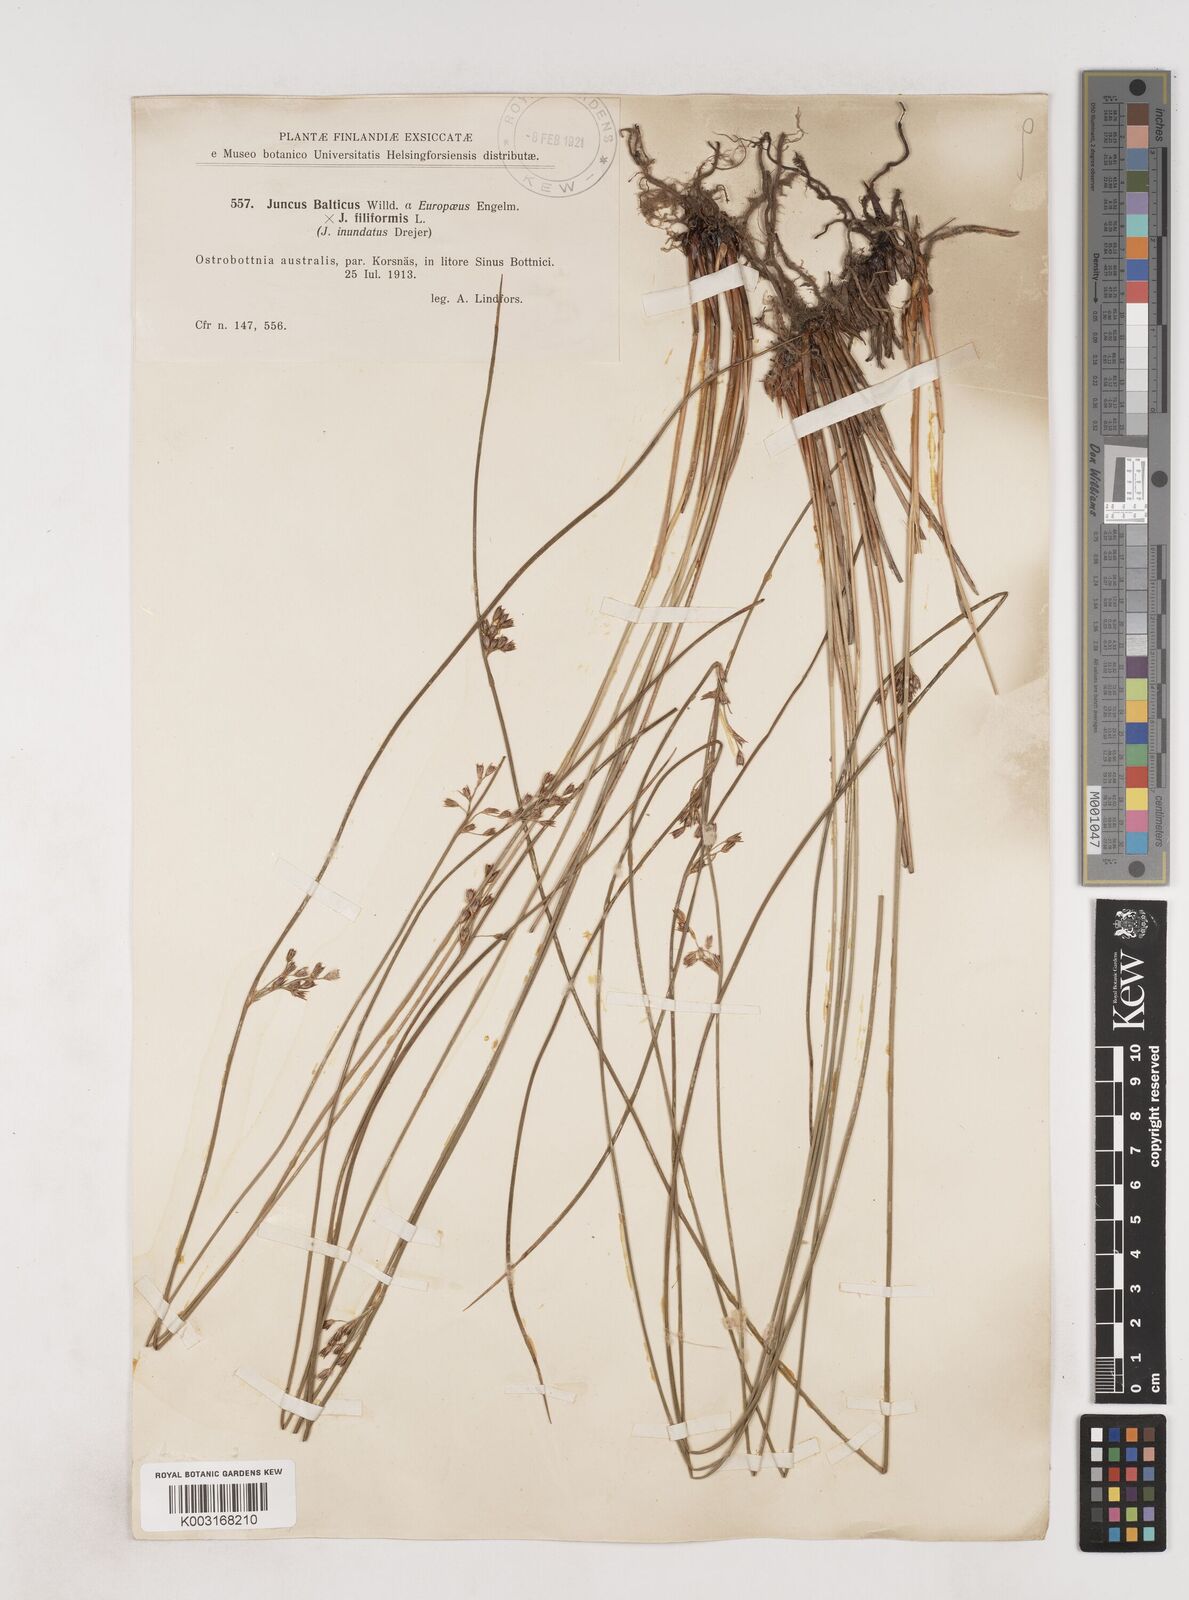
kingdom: Plantae
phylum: Tracheophyta
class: Liliopsida
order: Poales
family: Juncaceae
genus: Juncus
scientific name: Juncus balticus
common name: Baltic rush
